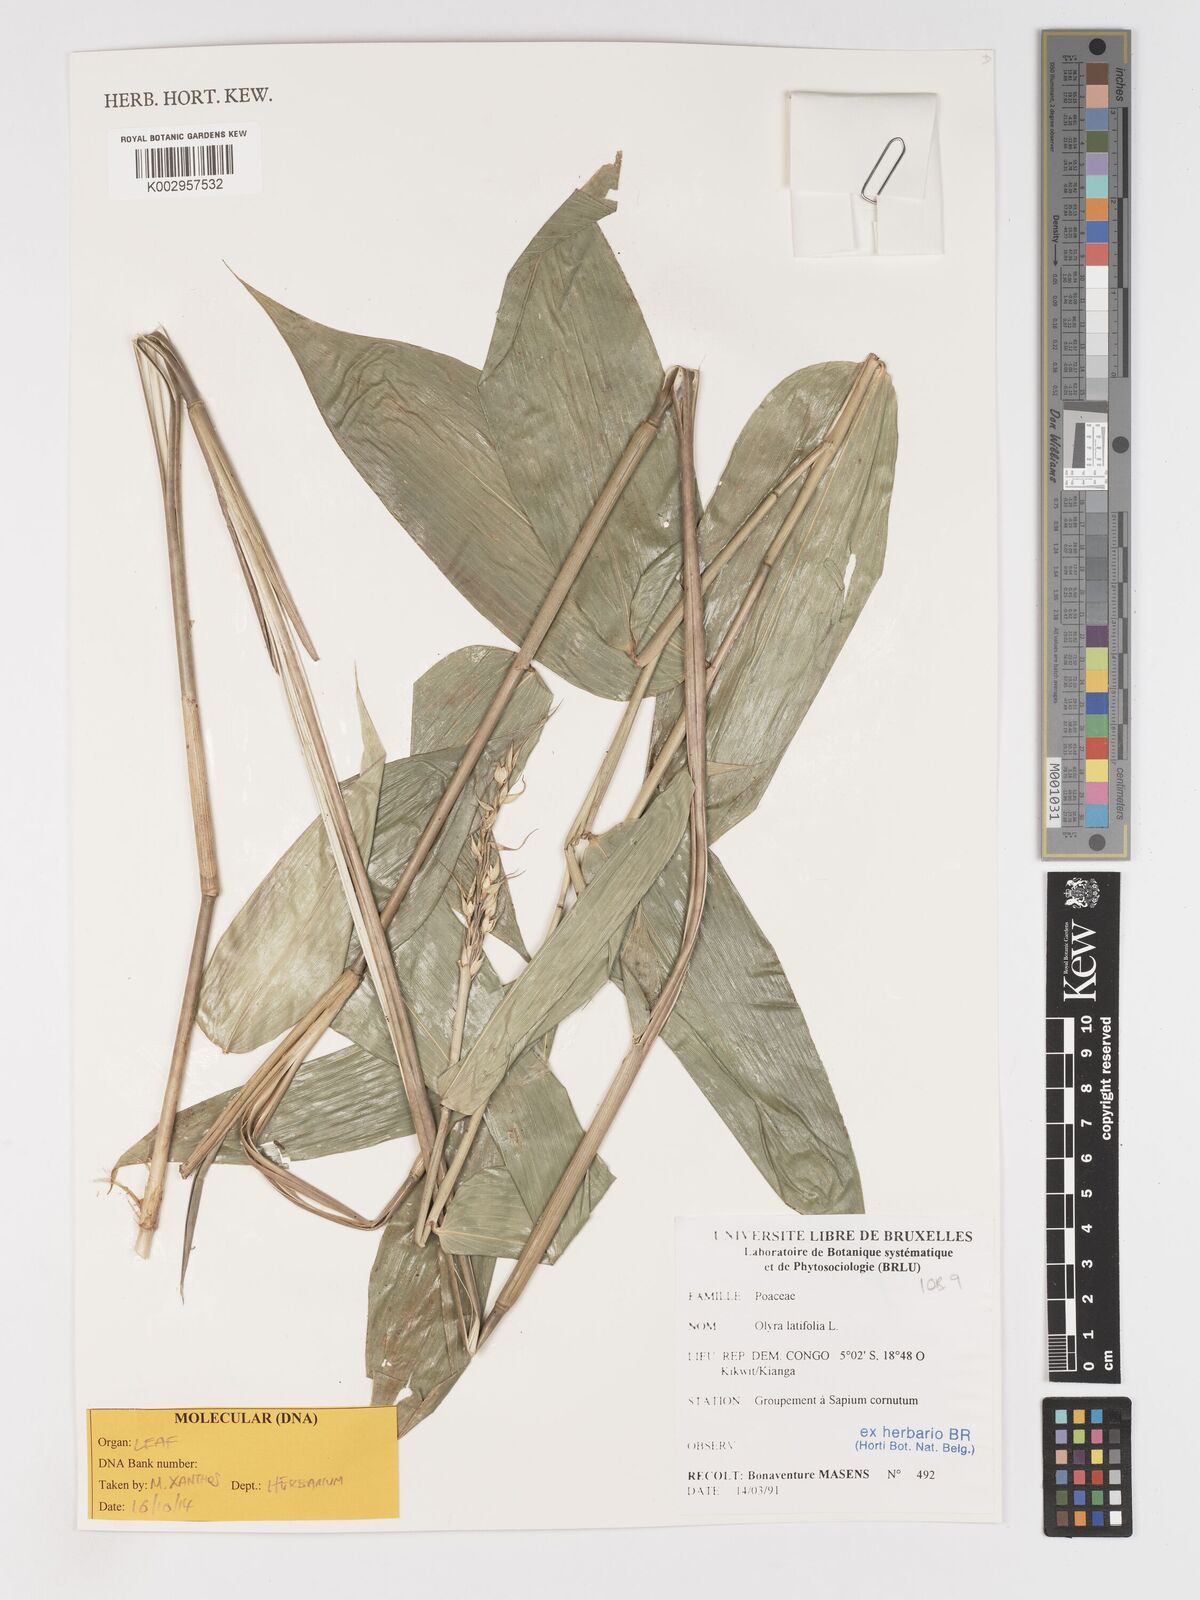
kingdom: Plantae
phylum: Tracheophyta
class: Liliopsida
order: Poales
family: Poaceae
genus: Olyra
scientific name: Olyra latifolia
